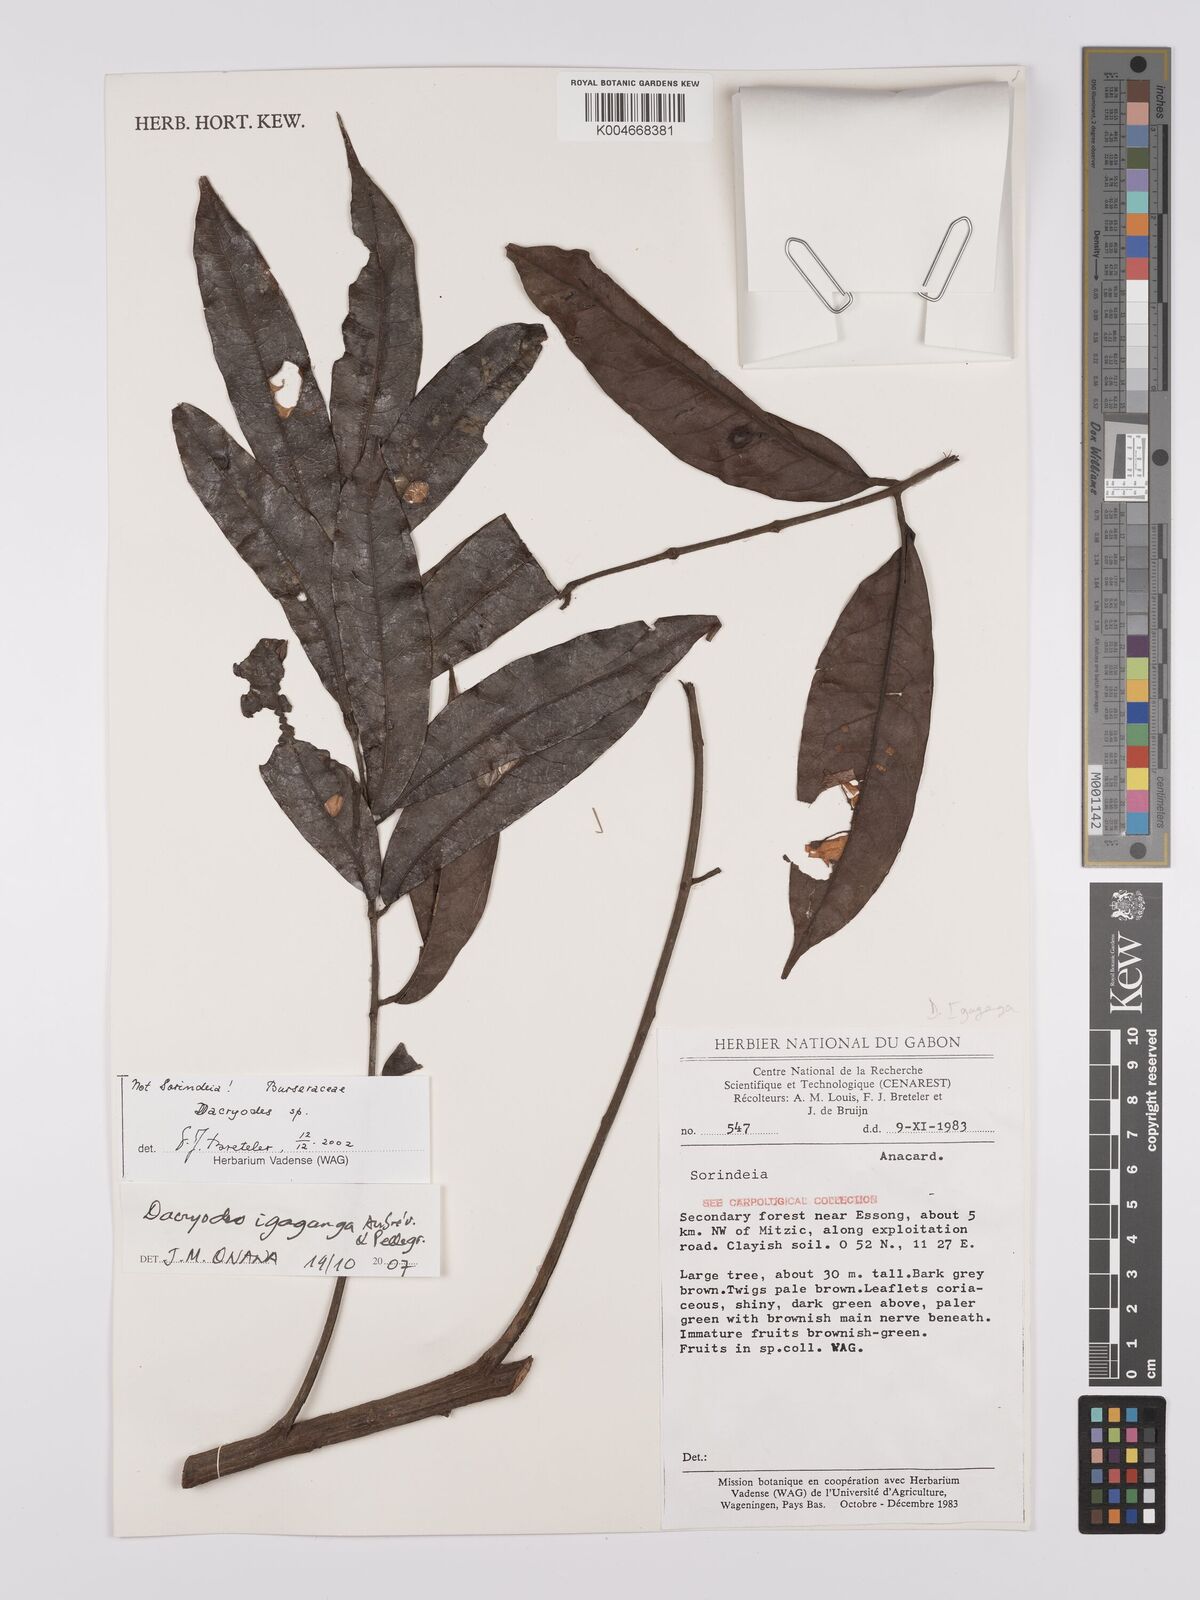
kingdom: Plantae
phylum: Tracheophyta
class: Magnoliopsida
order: Sapindales
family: Burseraceae
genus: Pachylobus
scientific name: Pachylobus igaganga
